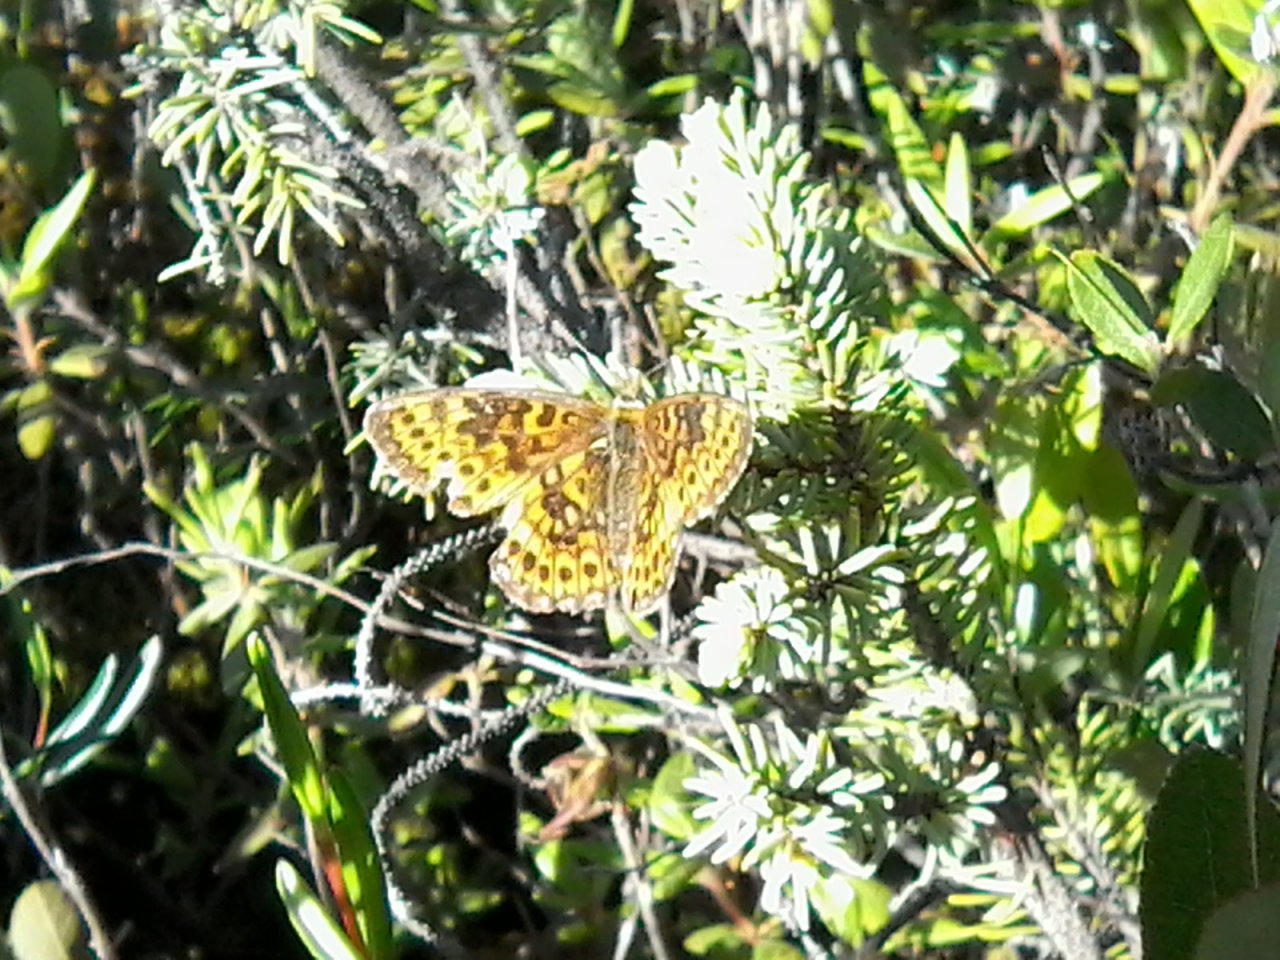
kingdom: Animalia
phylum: Arthropoda
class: Insecta
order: Lepidoptera
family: Nymphalidae
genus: Boloria
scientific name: Boloria eunomia
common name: Bog Fritillary
